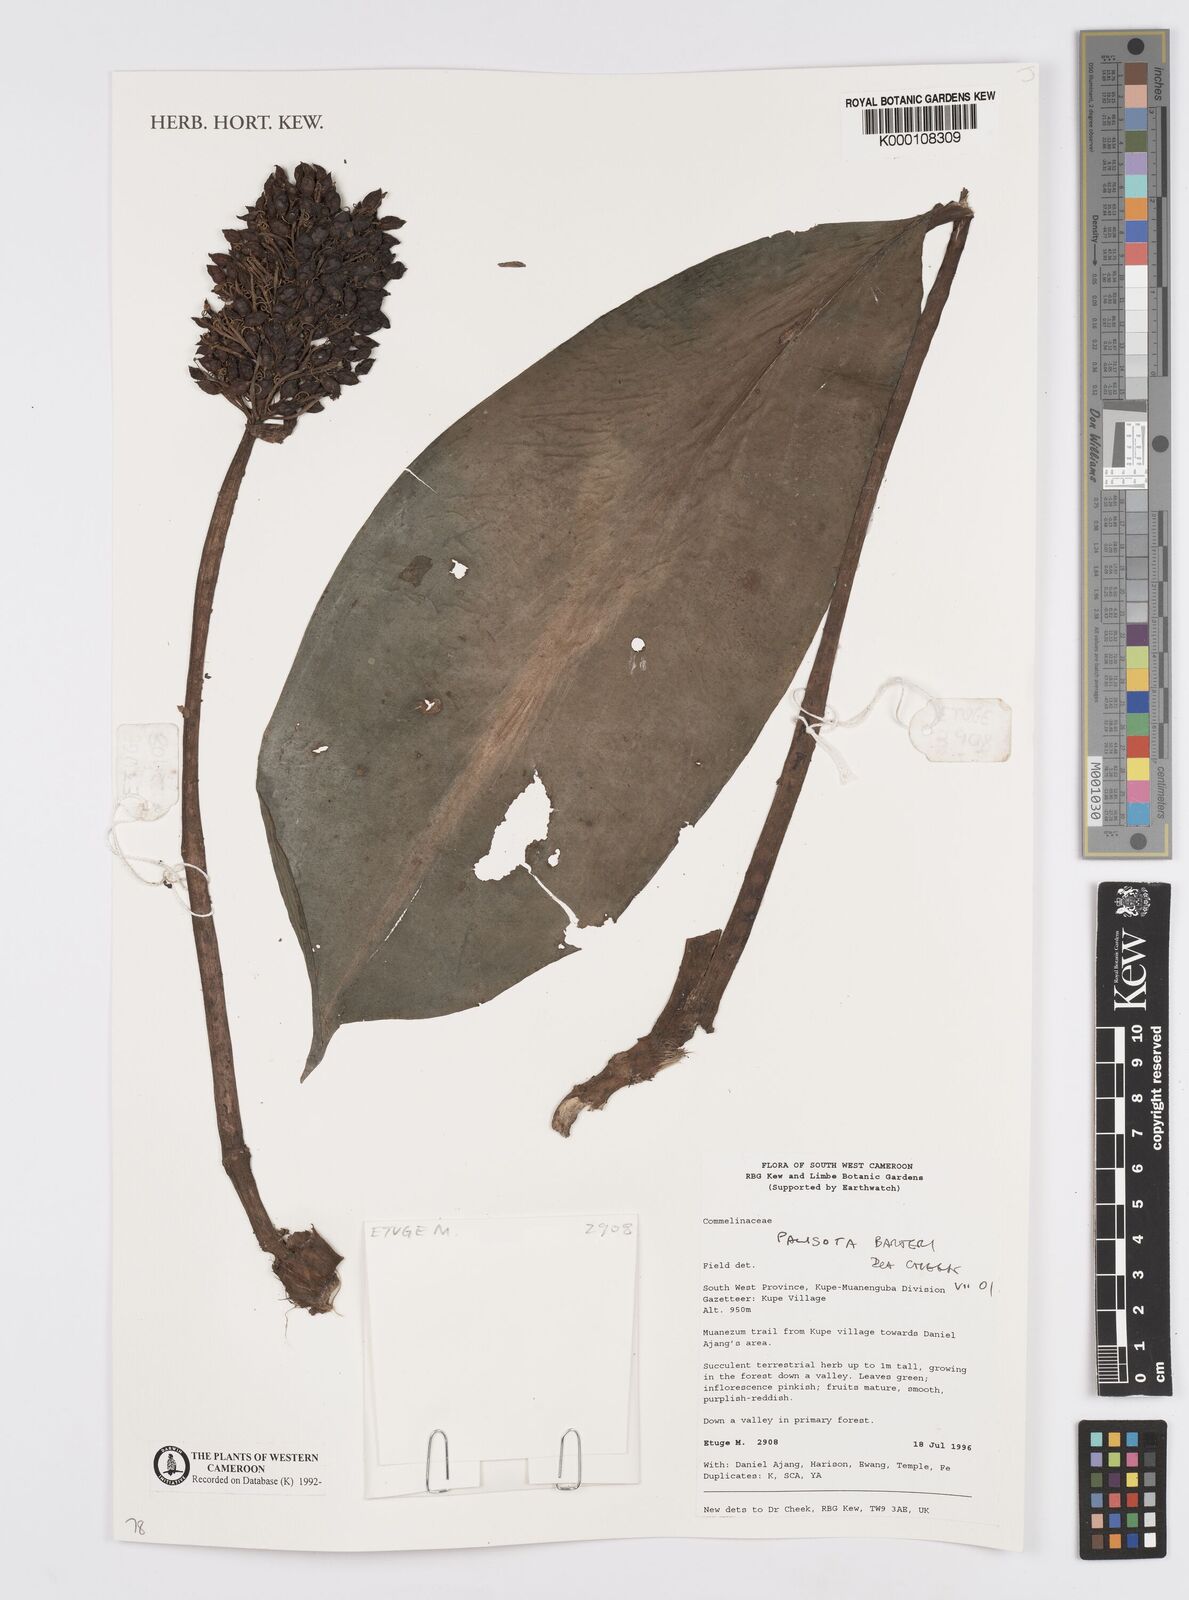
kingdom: Plantae
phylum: Tracheophyta
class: Liliopsida
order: Commelinales
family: Commelinaceae
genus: Palisota
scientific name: Palisota barteri
